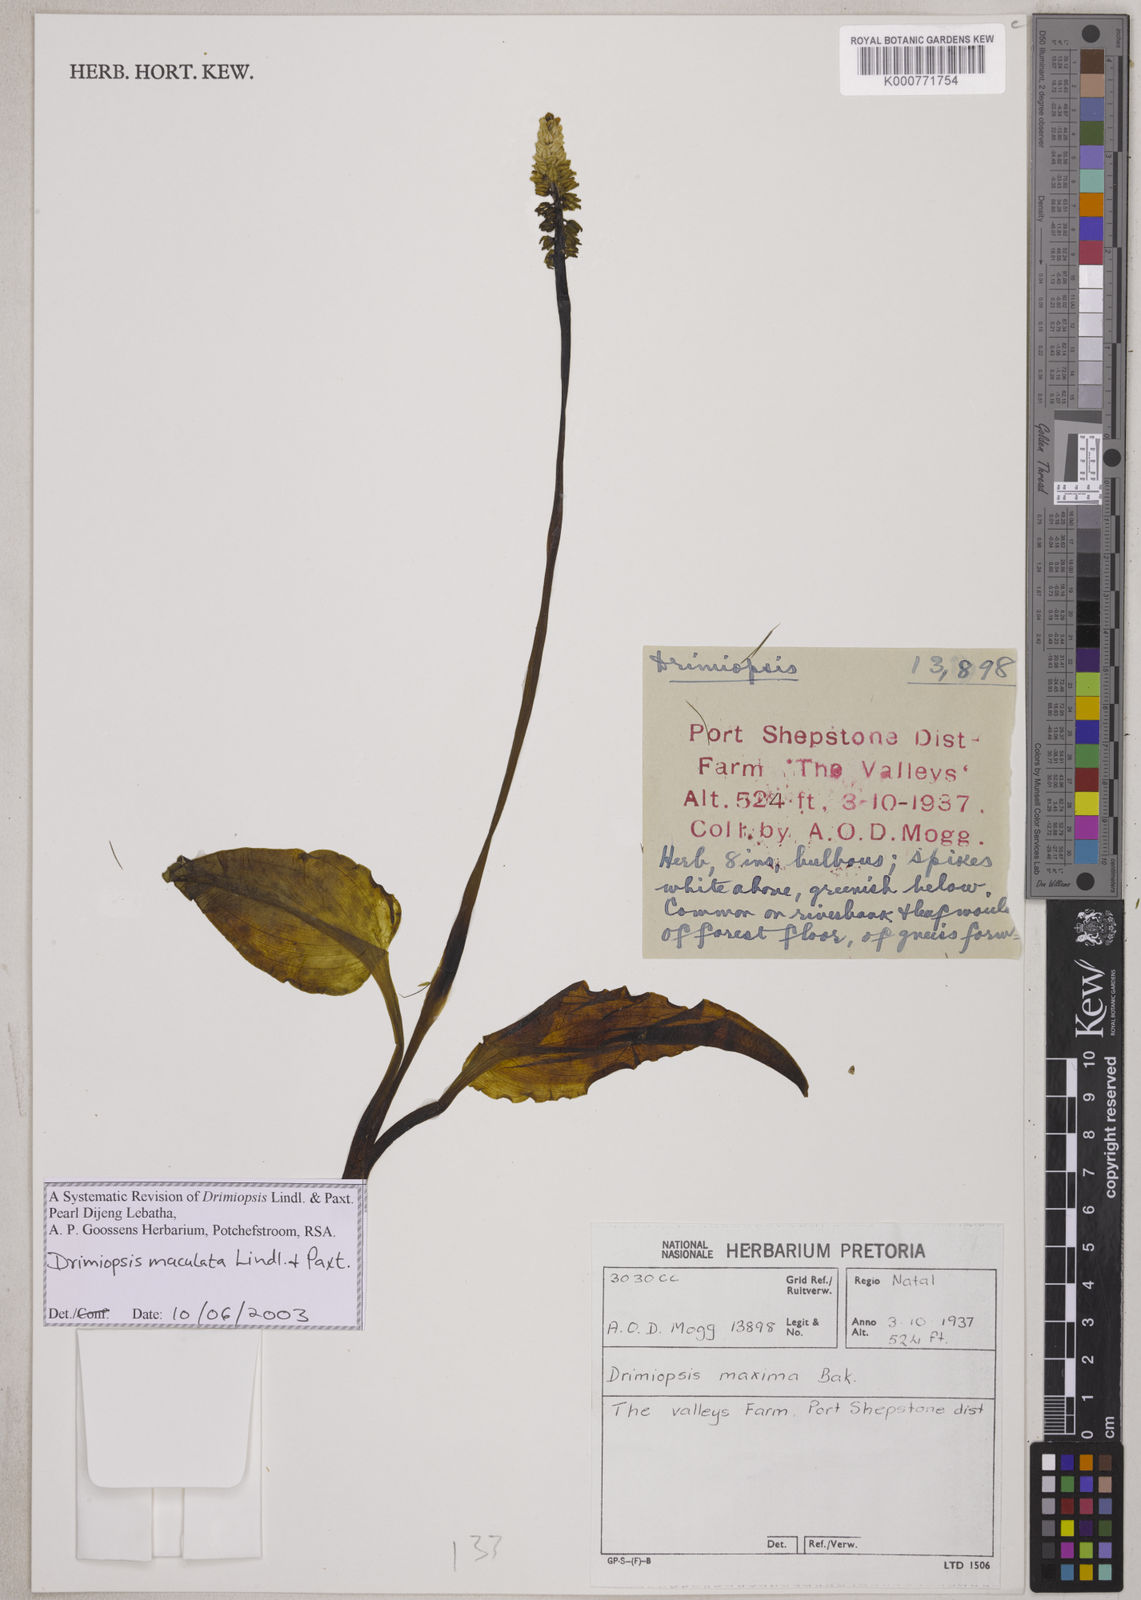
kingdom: Plantae
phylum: Tracheophyta
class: Liliopsida
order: Asparagales
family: Asparagaceae
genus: Resnova
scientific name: Resnova humifusa
